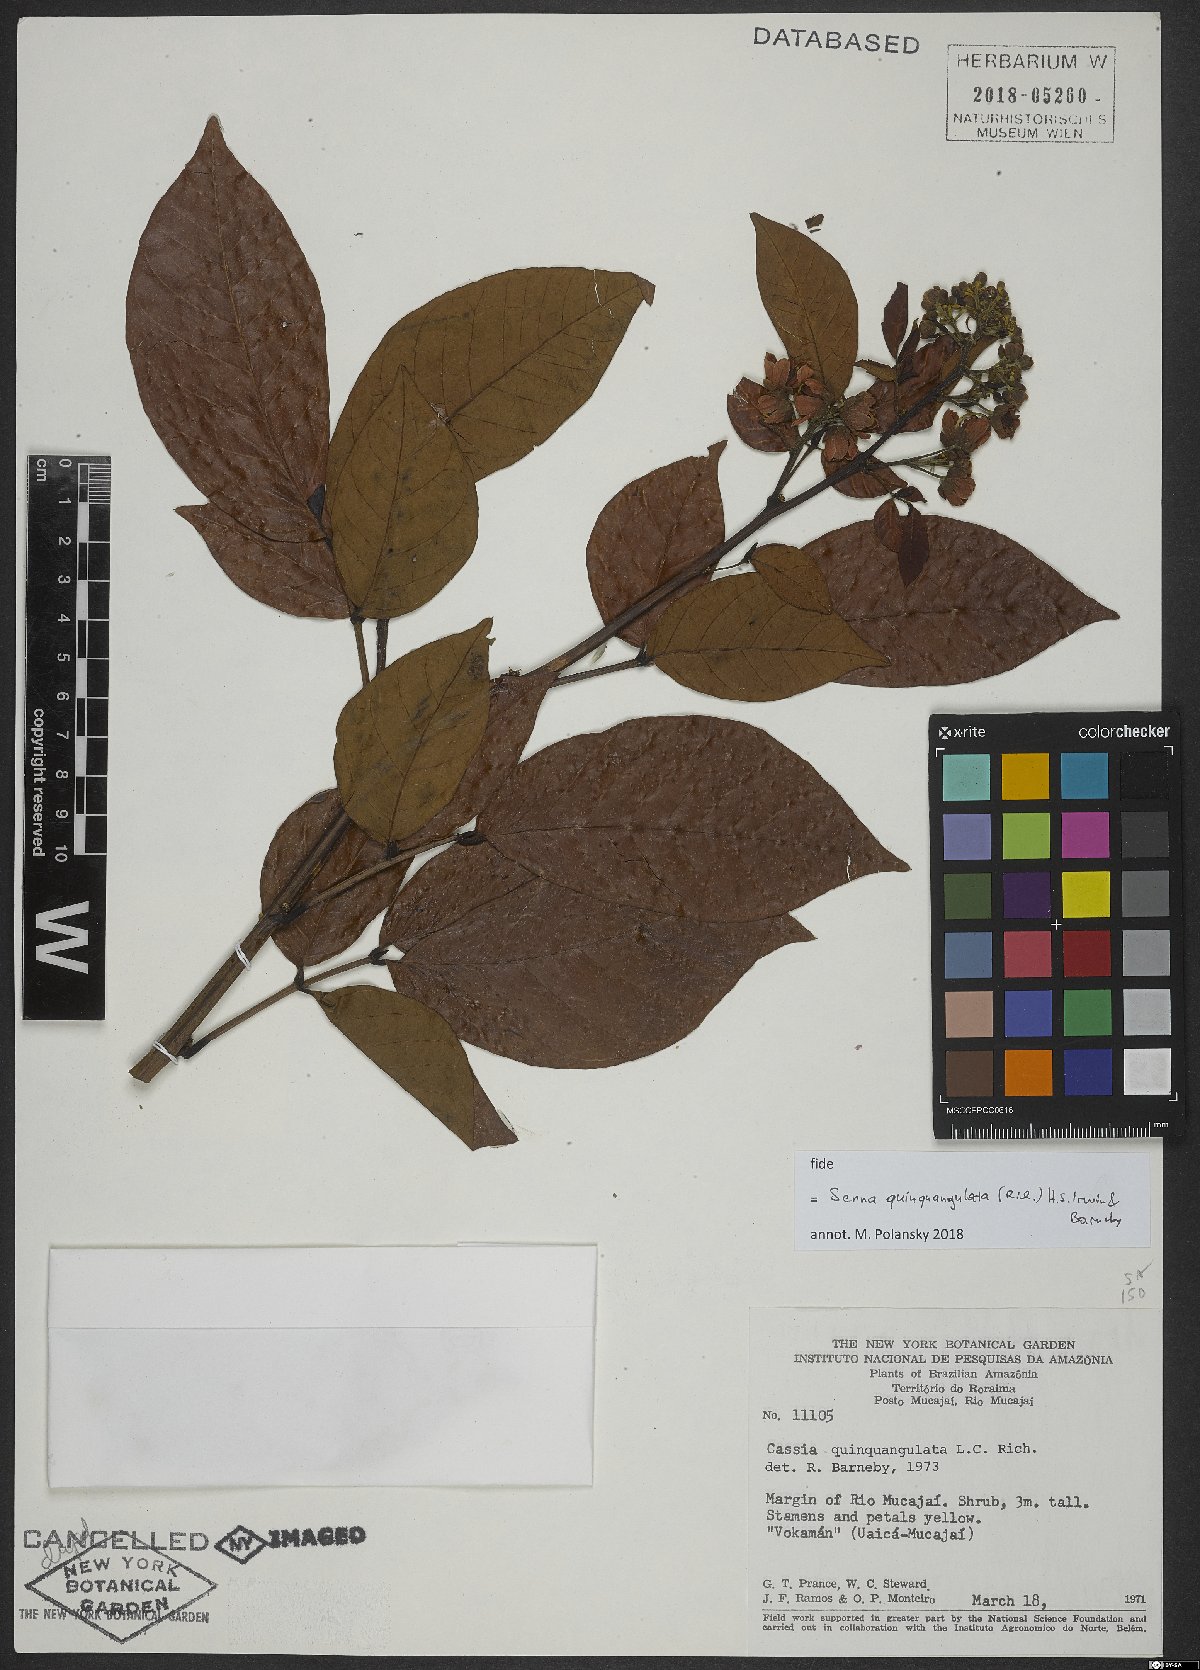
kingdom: Plantae
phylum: Tracheophyta
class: Magnoliopsida
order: Fabales
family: Fabaceae
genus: Senna
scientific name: Senna quinquangulata
